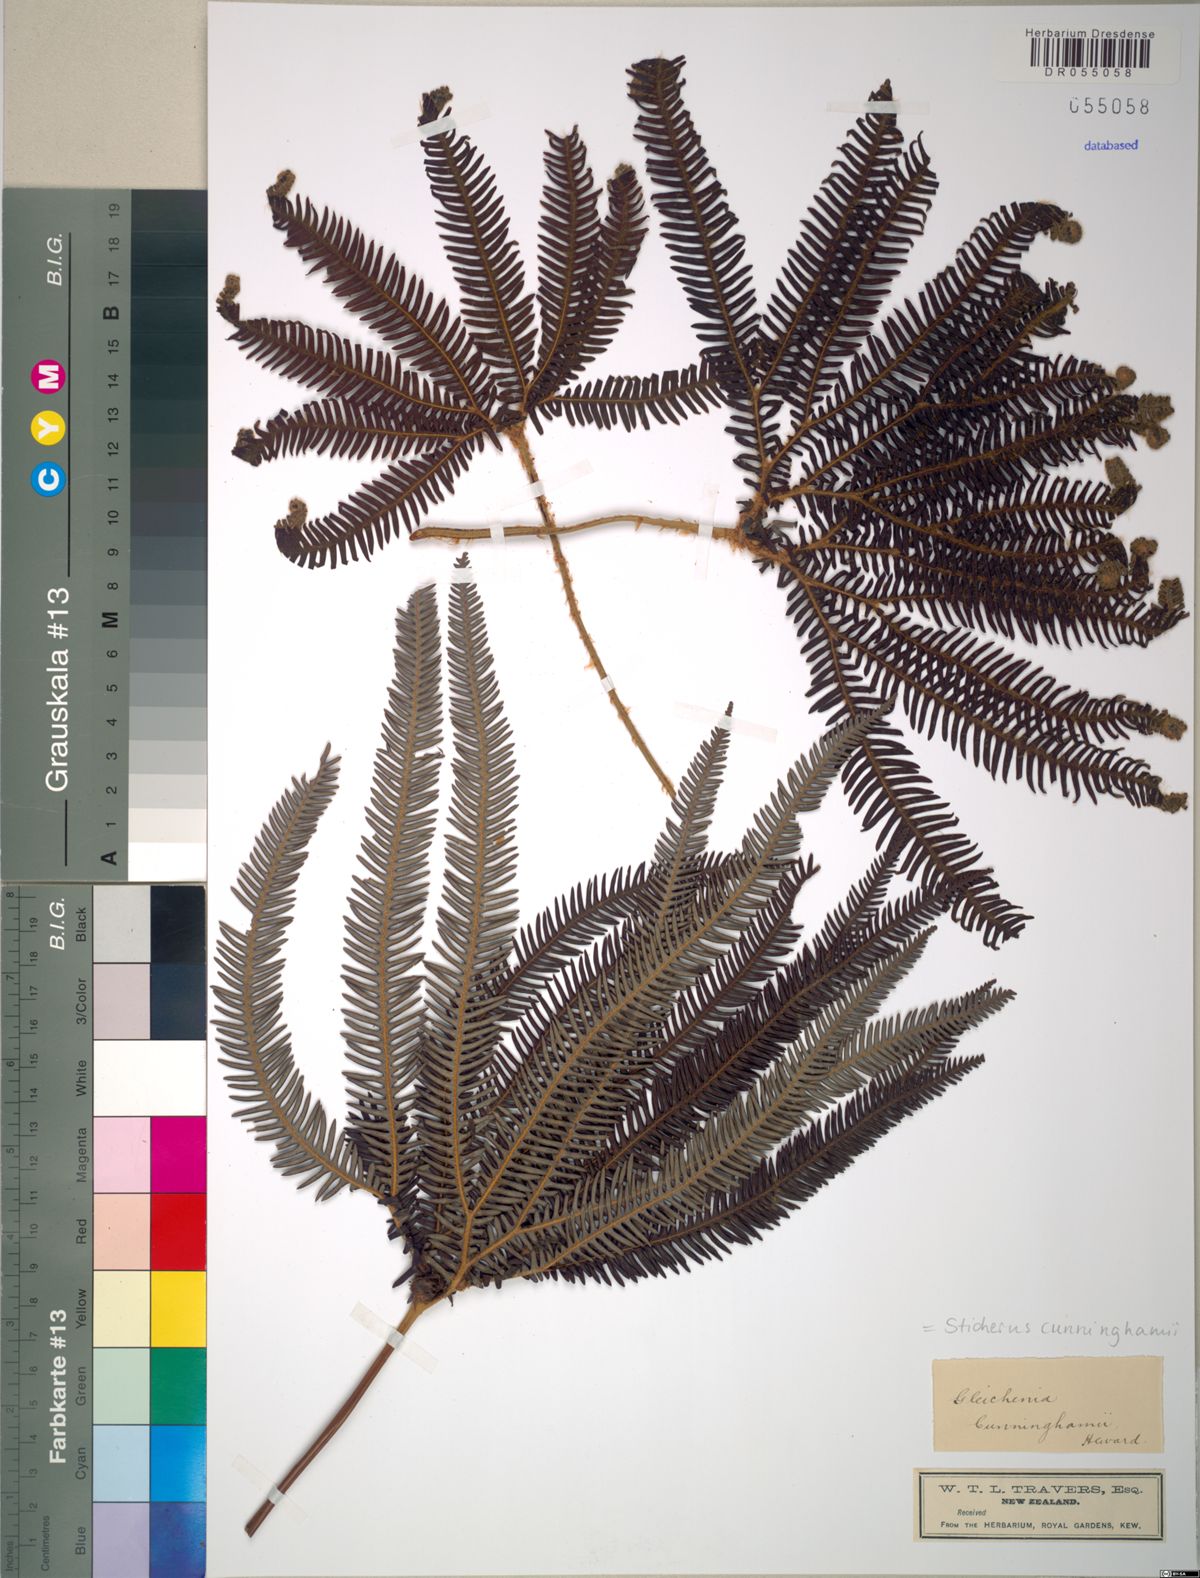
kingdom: Plantae
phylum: Tracheophyta
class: Polypodiopsida
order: Gleicheniales
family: Gleicheniaceae
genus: Sticherus
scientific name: Sticherus cunninghamii
